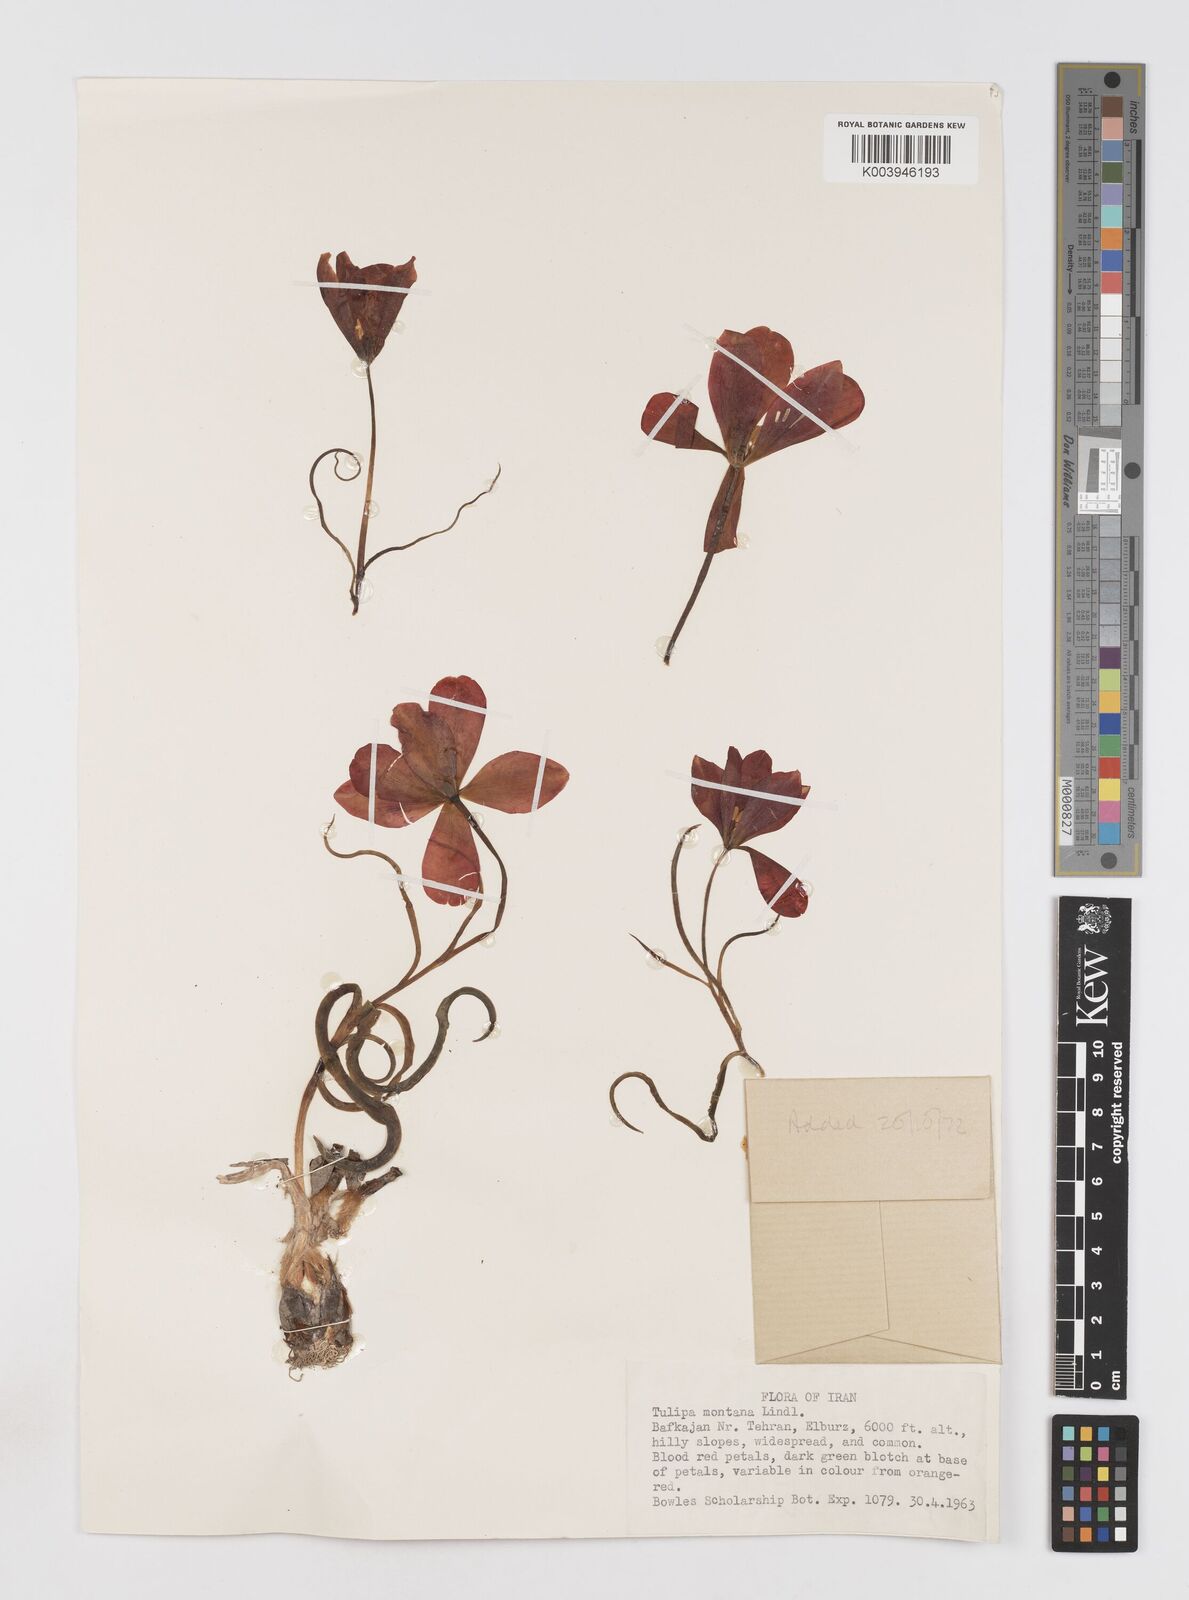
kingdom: Plantae
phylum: Tracheophyta
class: Liliopsida
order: Liliales
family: Liliaceae
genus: Tulipa
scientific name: Tulipa montana
